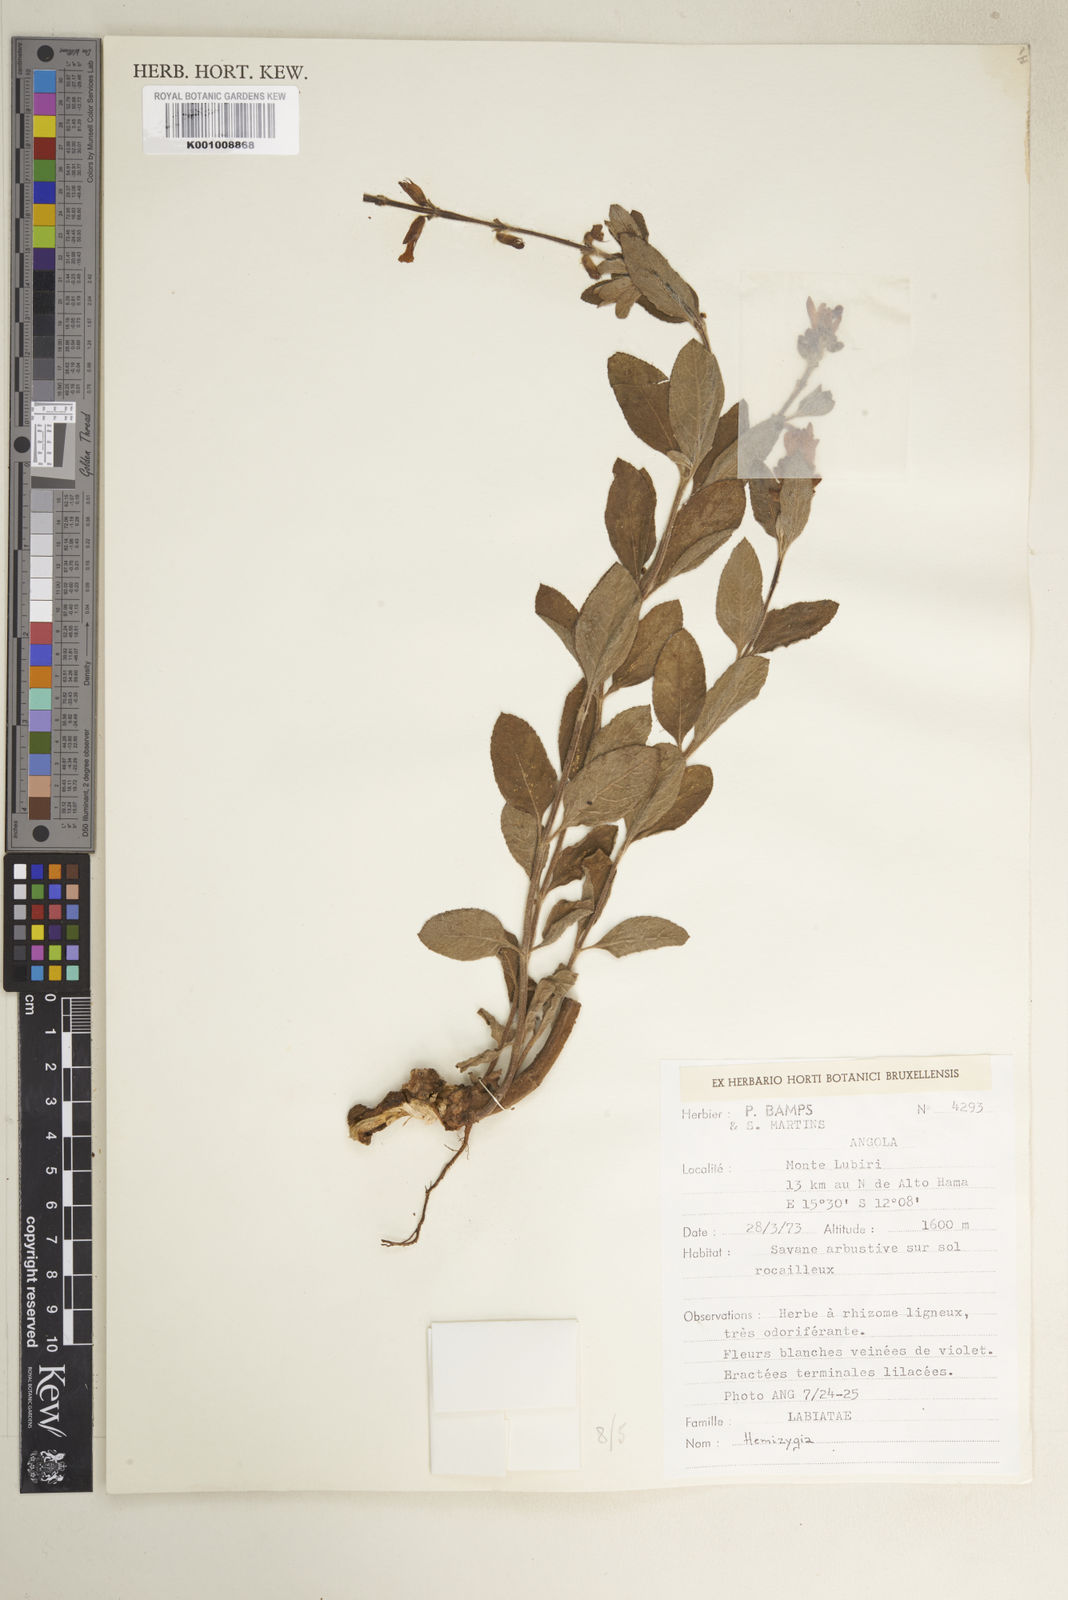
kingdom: Plantae
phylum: Tracheophyta
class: Magnoliopsida
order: Lamiales
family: Lamiaceae
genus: Syncolostemon
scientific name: Syncolostemon welwitschii
